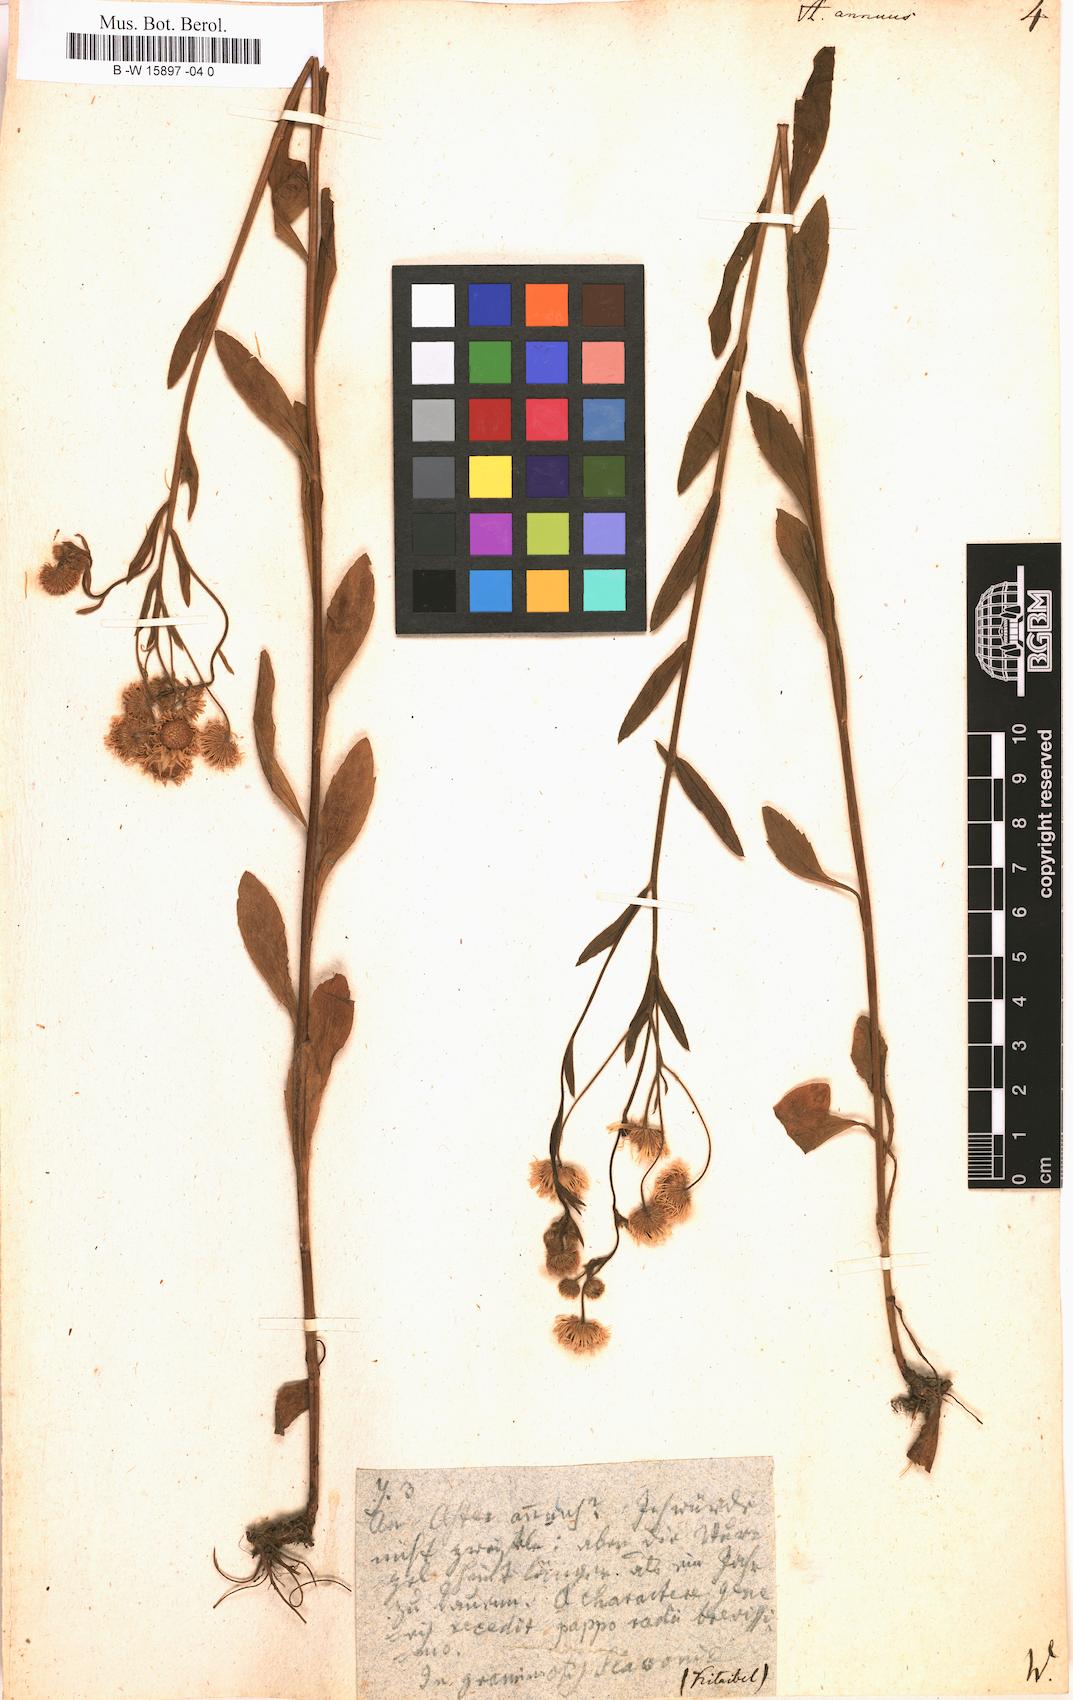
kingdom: Plantae
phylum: Tracheophyta
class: Magnoliopsida
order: Asterales
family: Asteraceae
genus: Erigeron
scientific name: Erigeron annuus
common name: Tall fleabane
